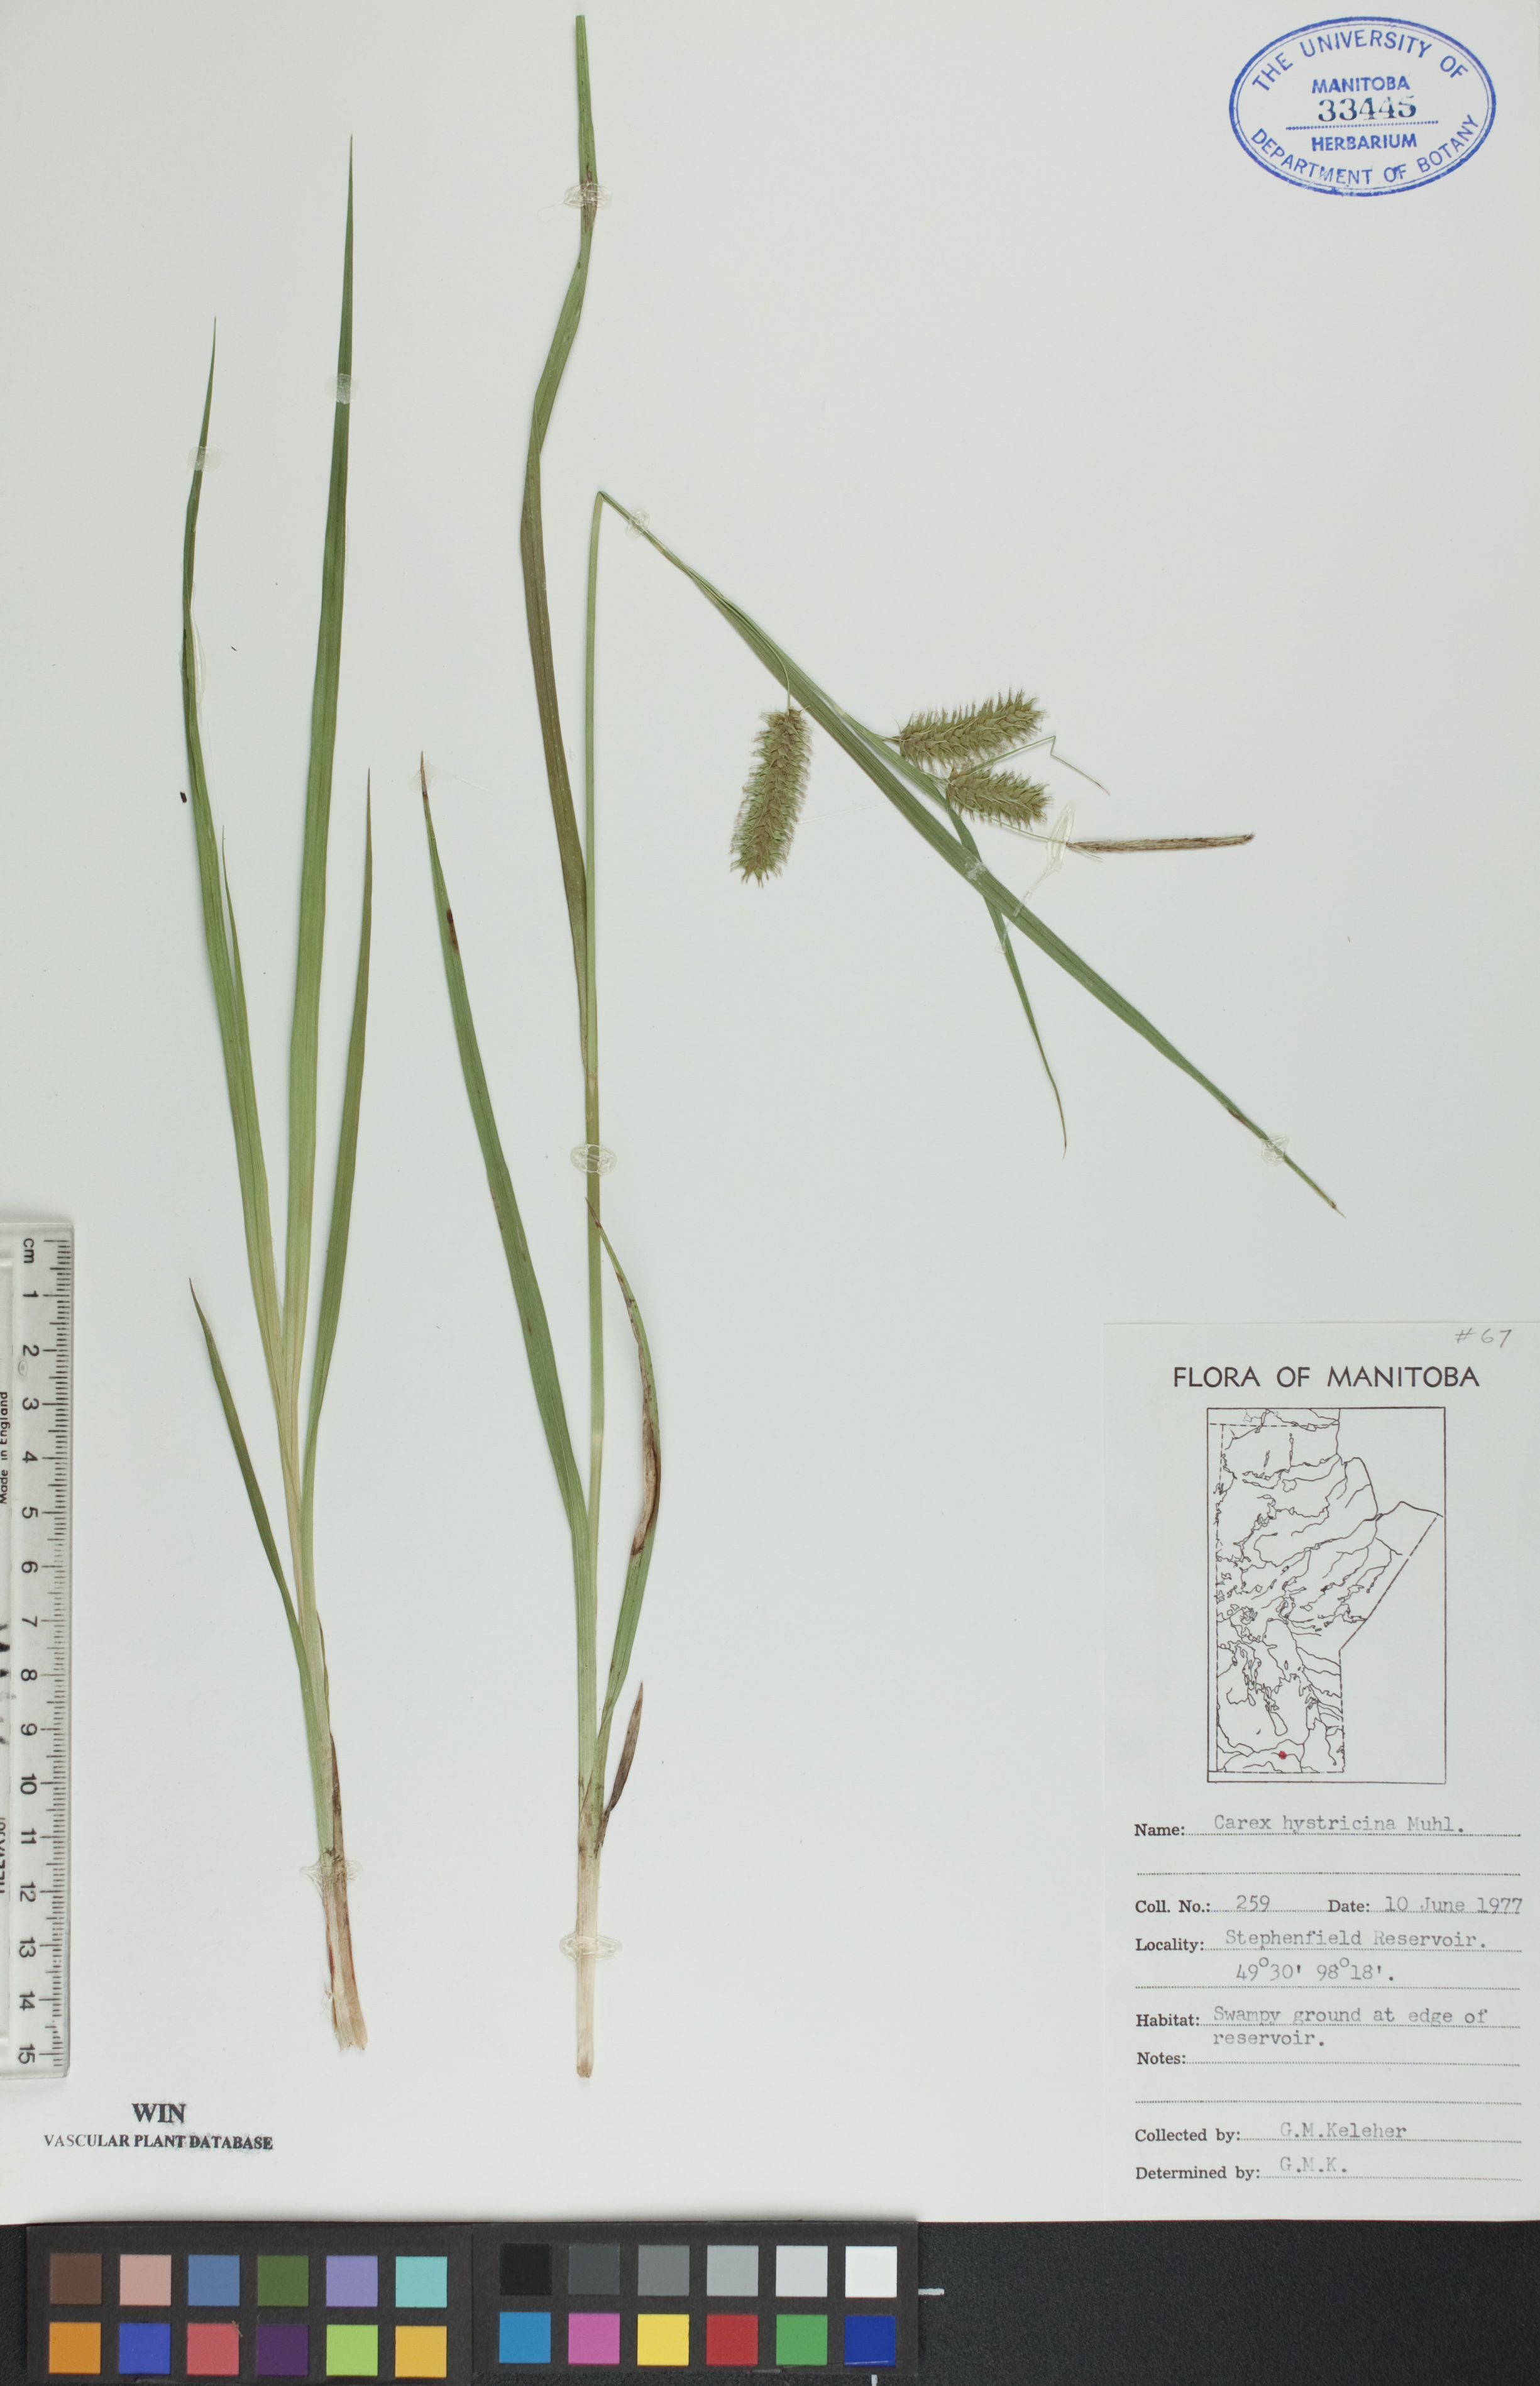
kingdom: Plantae
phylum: Tracheophyta
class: Liliopsida
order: Poales
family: Cyperaceae
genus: Carex
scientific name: Carex hystericina
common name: Bottlebrush sedge
